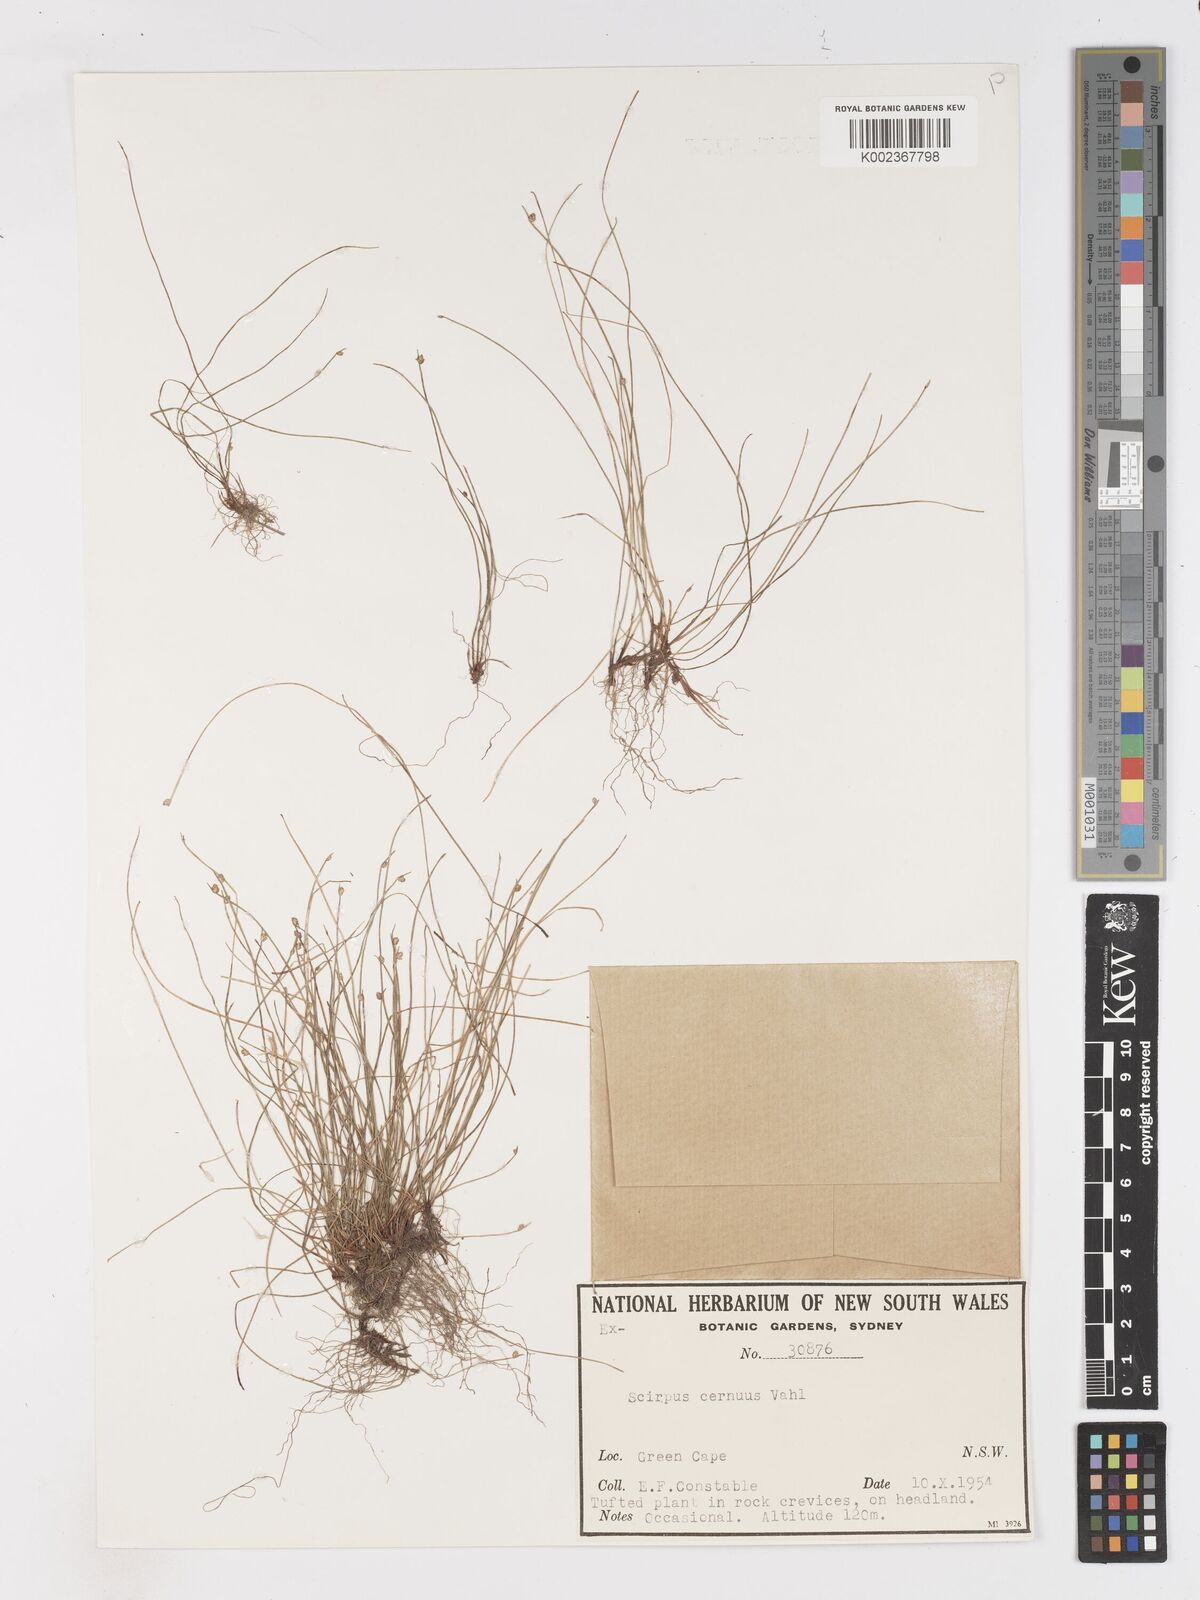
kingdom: Plantae
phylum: Tracheophyta
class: Liliopsida
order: Poales
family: Cyperaceae
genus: Isolepis
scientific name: Isolepis cernua
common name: Slender club-rush
